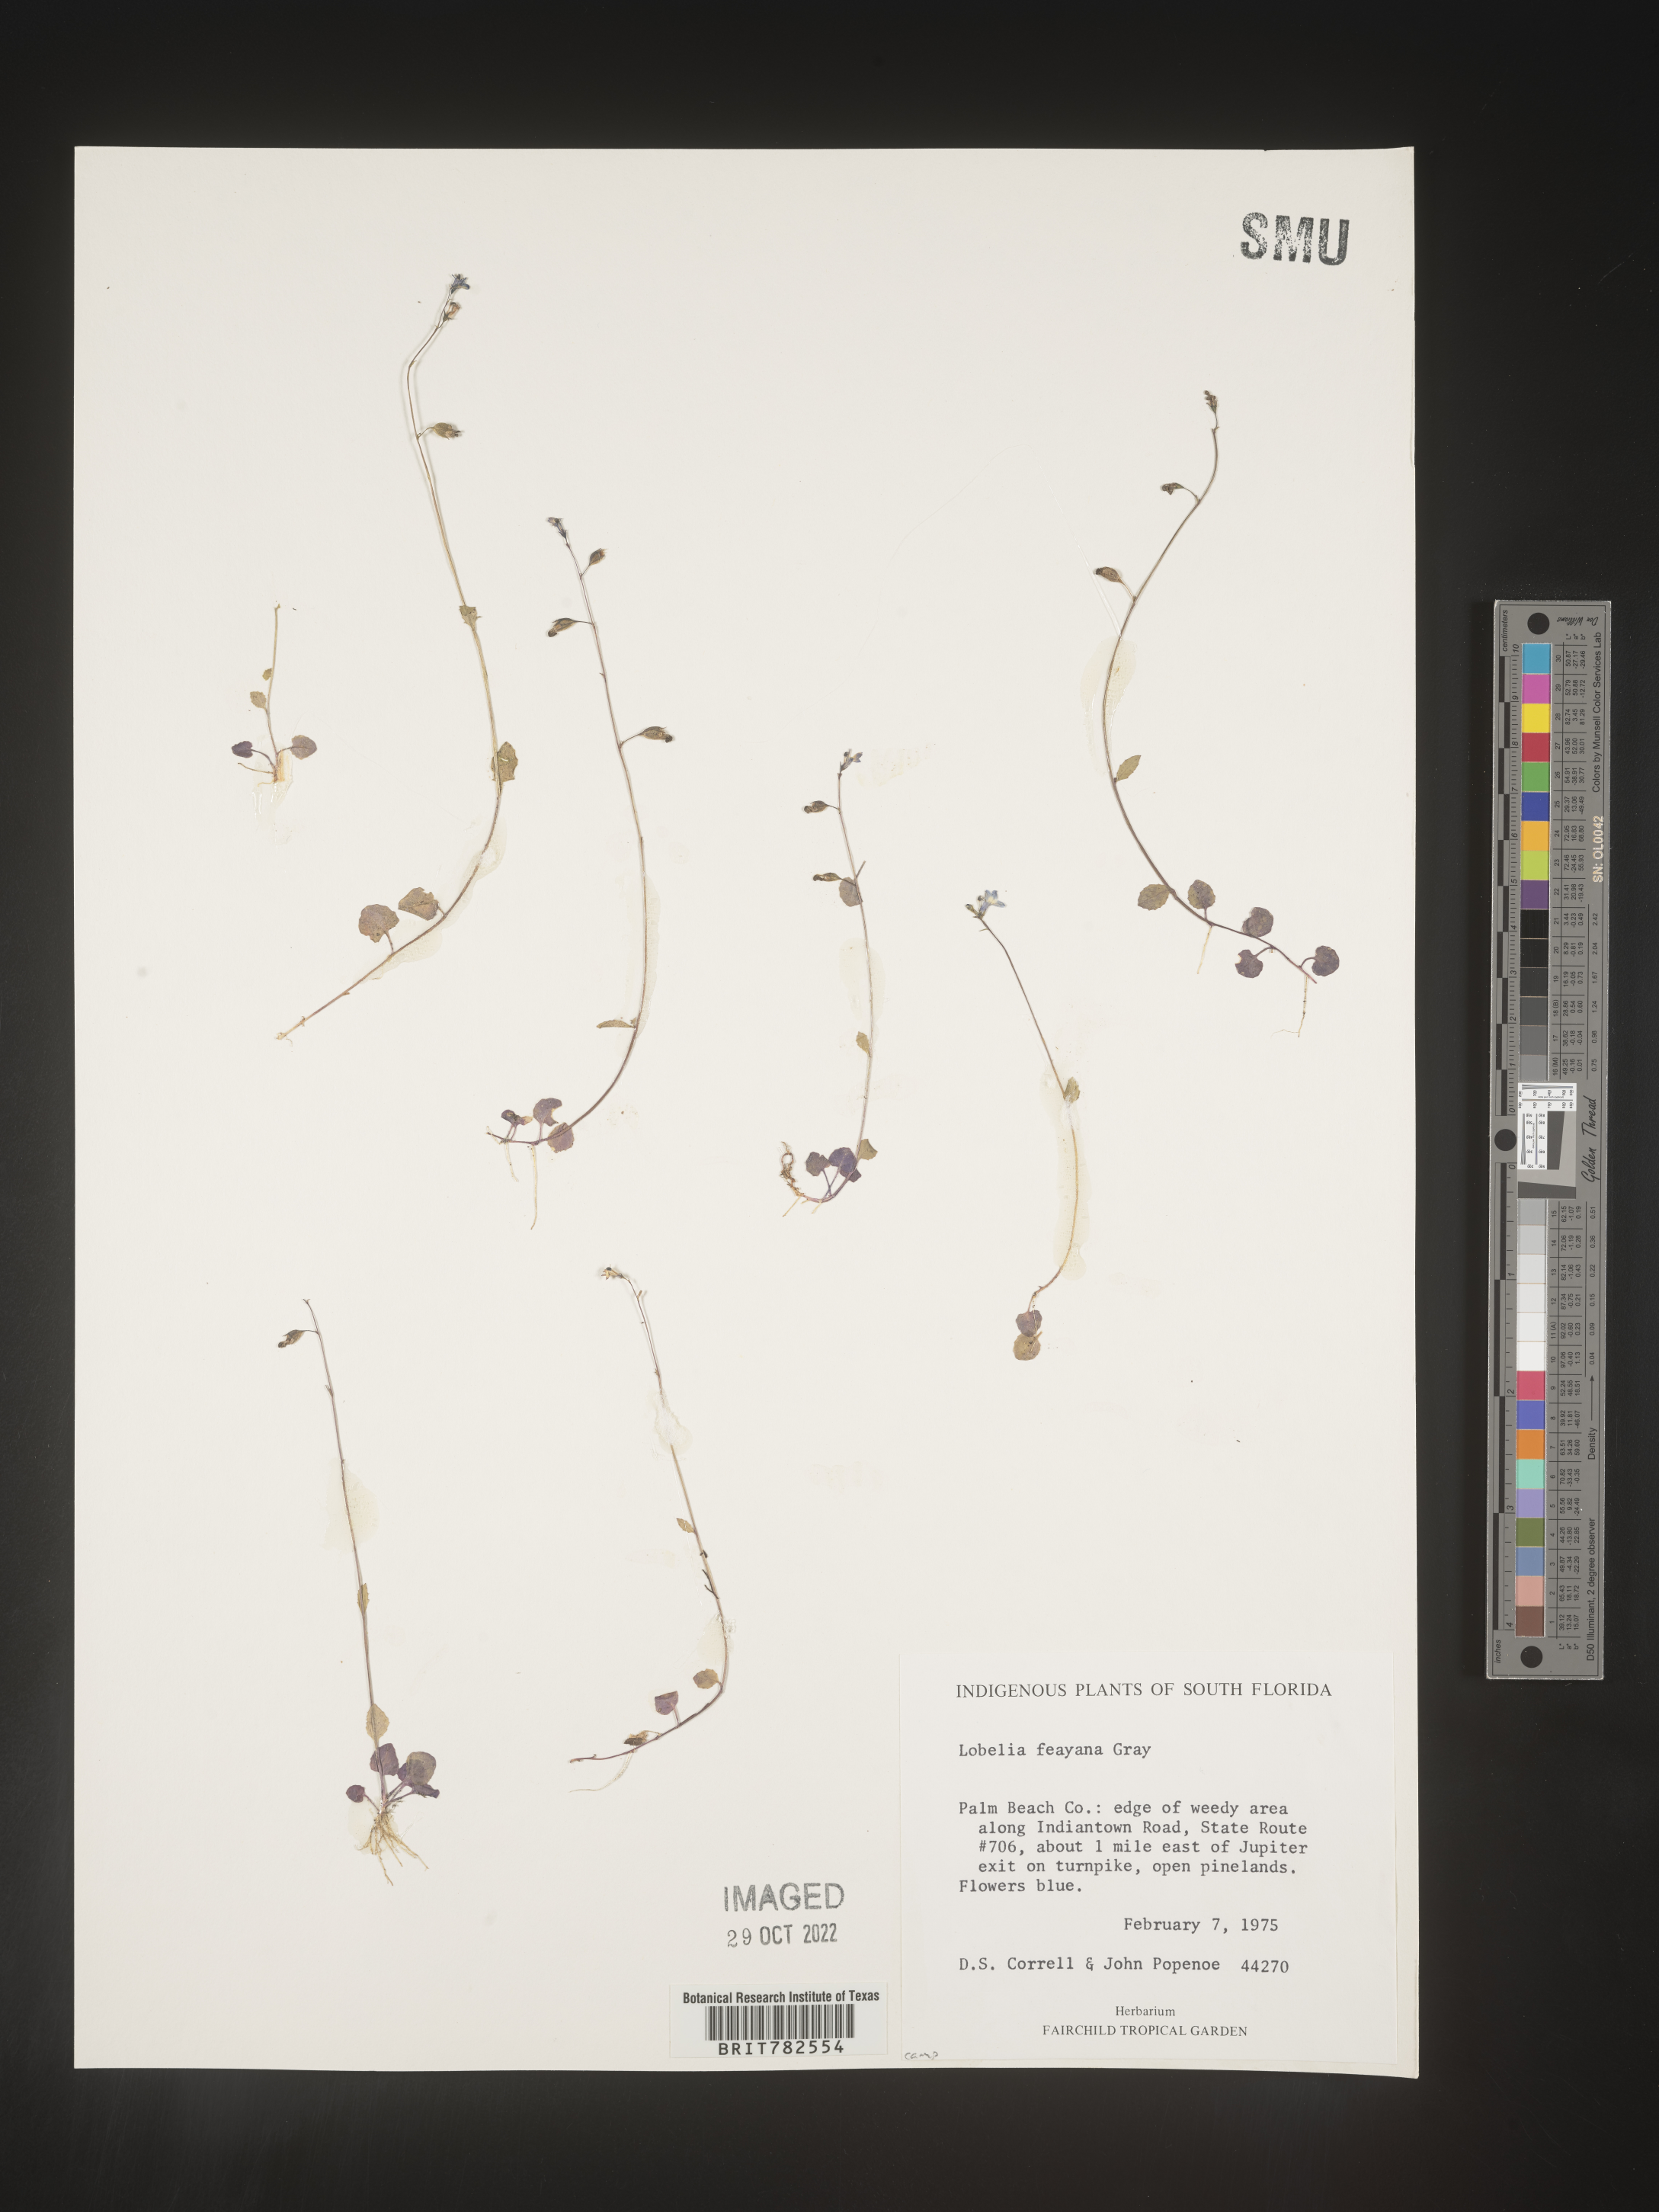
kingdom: Plantae
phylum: Tracheophyta
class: Magnoliopsida
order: Asterales
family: Campanulaceae
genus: Lobelia
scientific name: Lobelia
